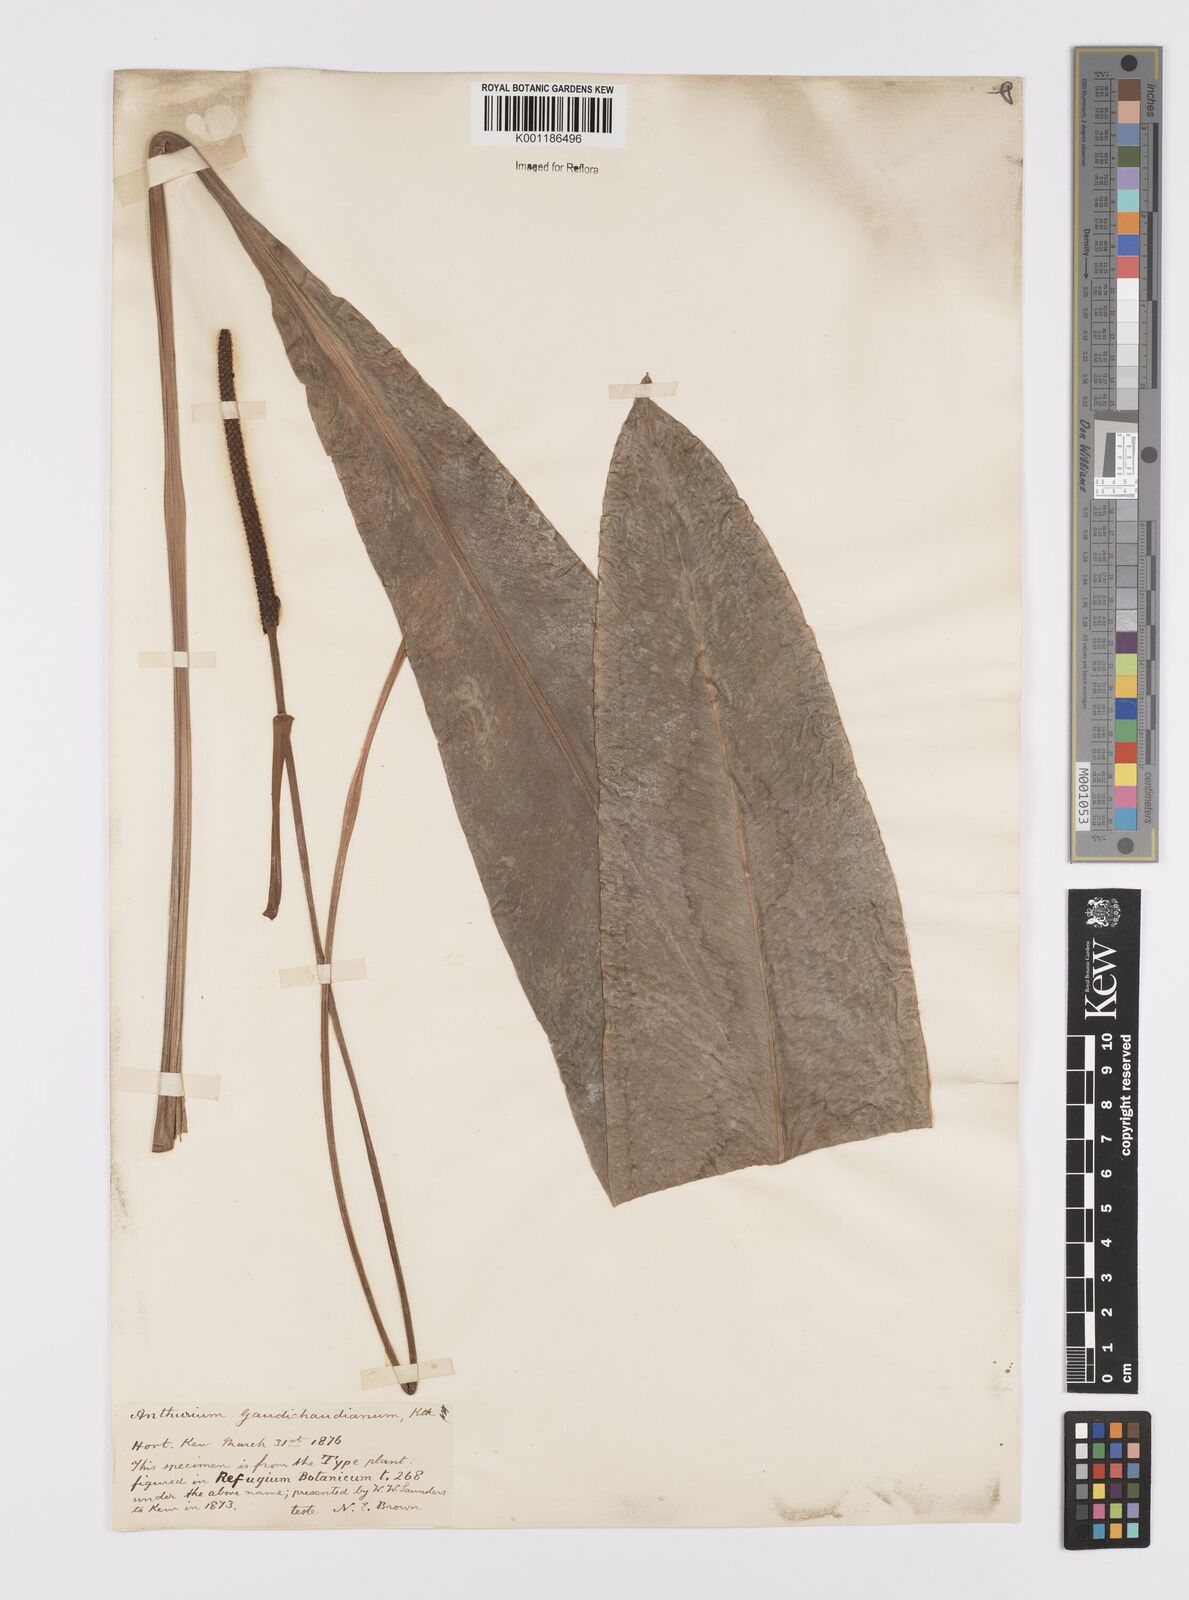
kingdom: Plantae
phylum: Tracheophyta
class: Liliopsida
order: Alismatales
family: Araceae
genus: Anthurium
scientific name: Anthurium gaudichaudianum
